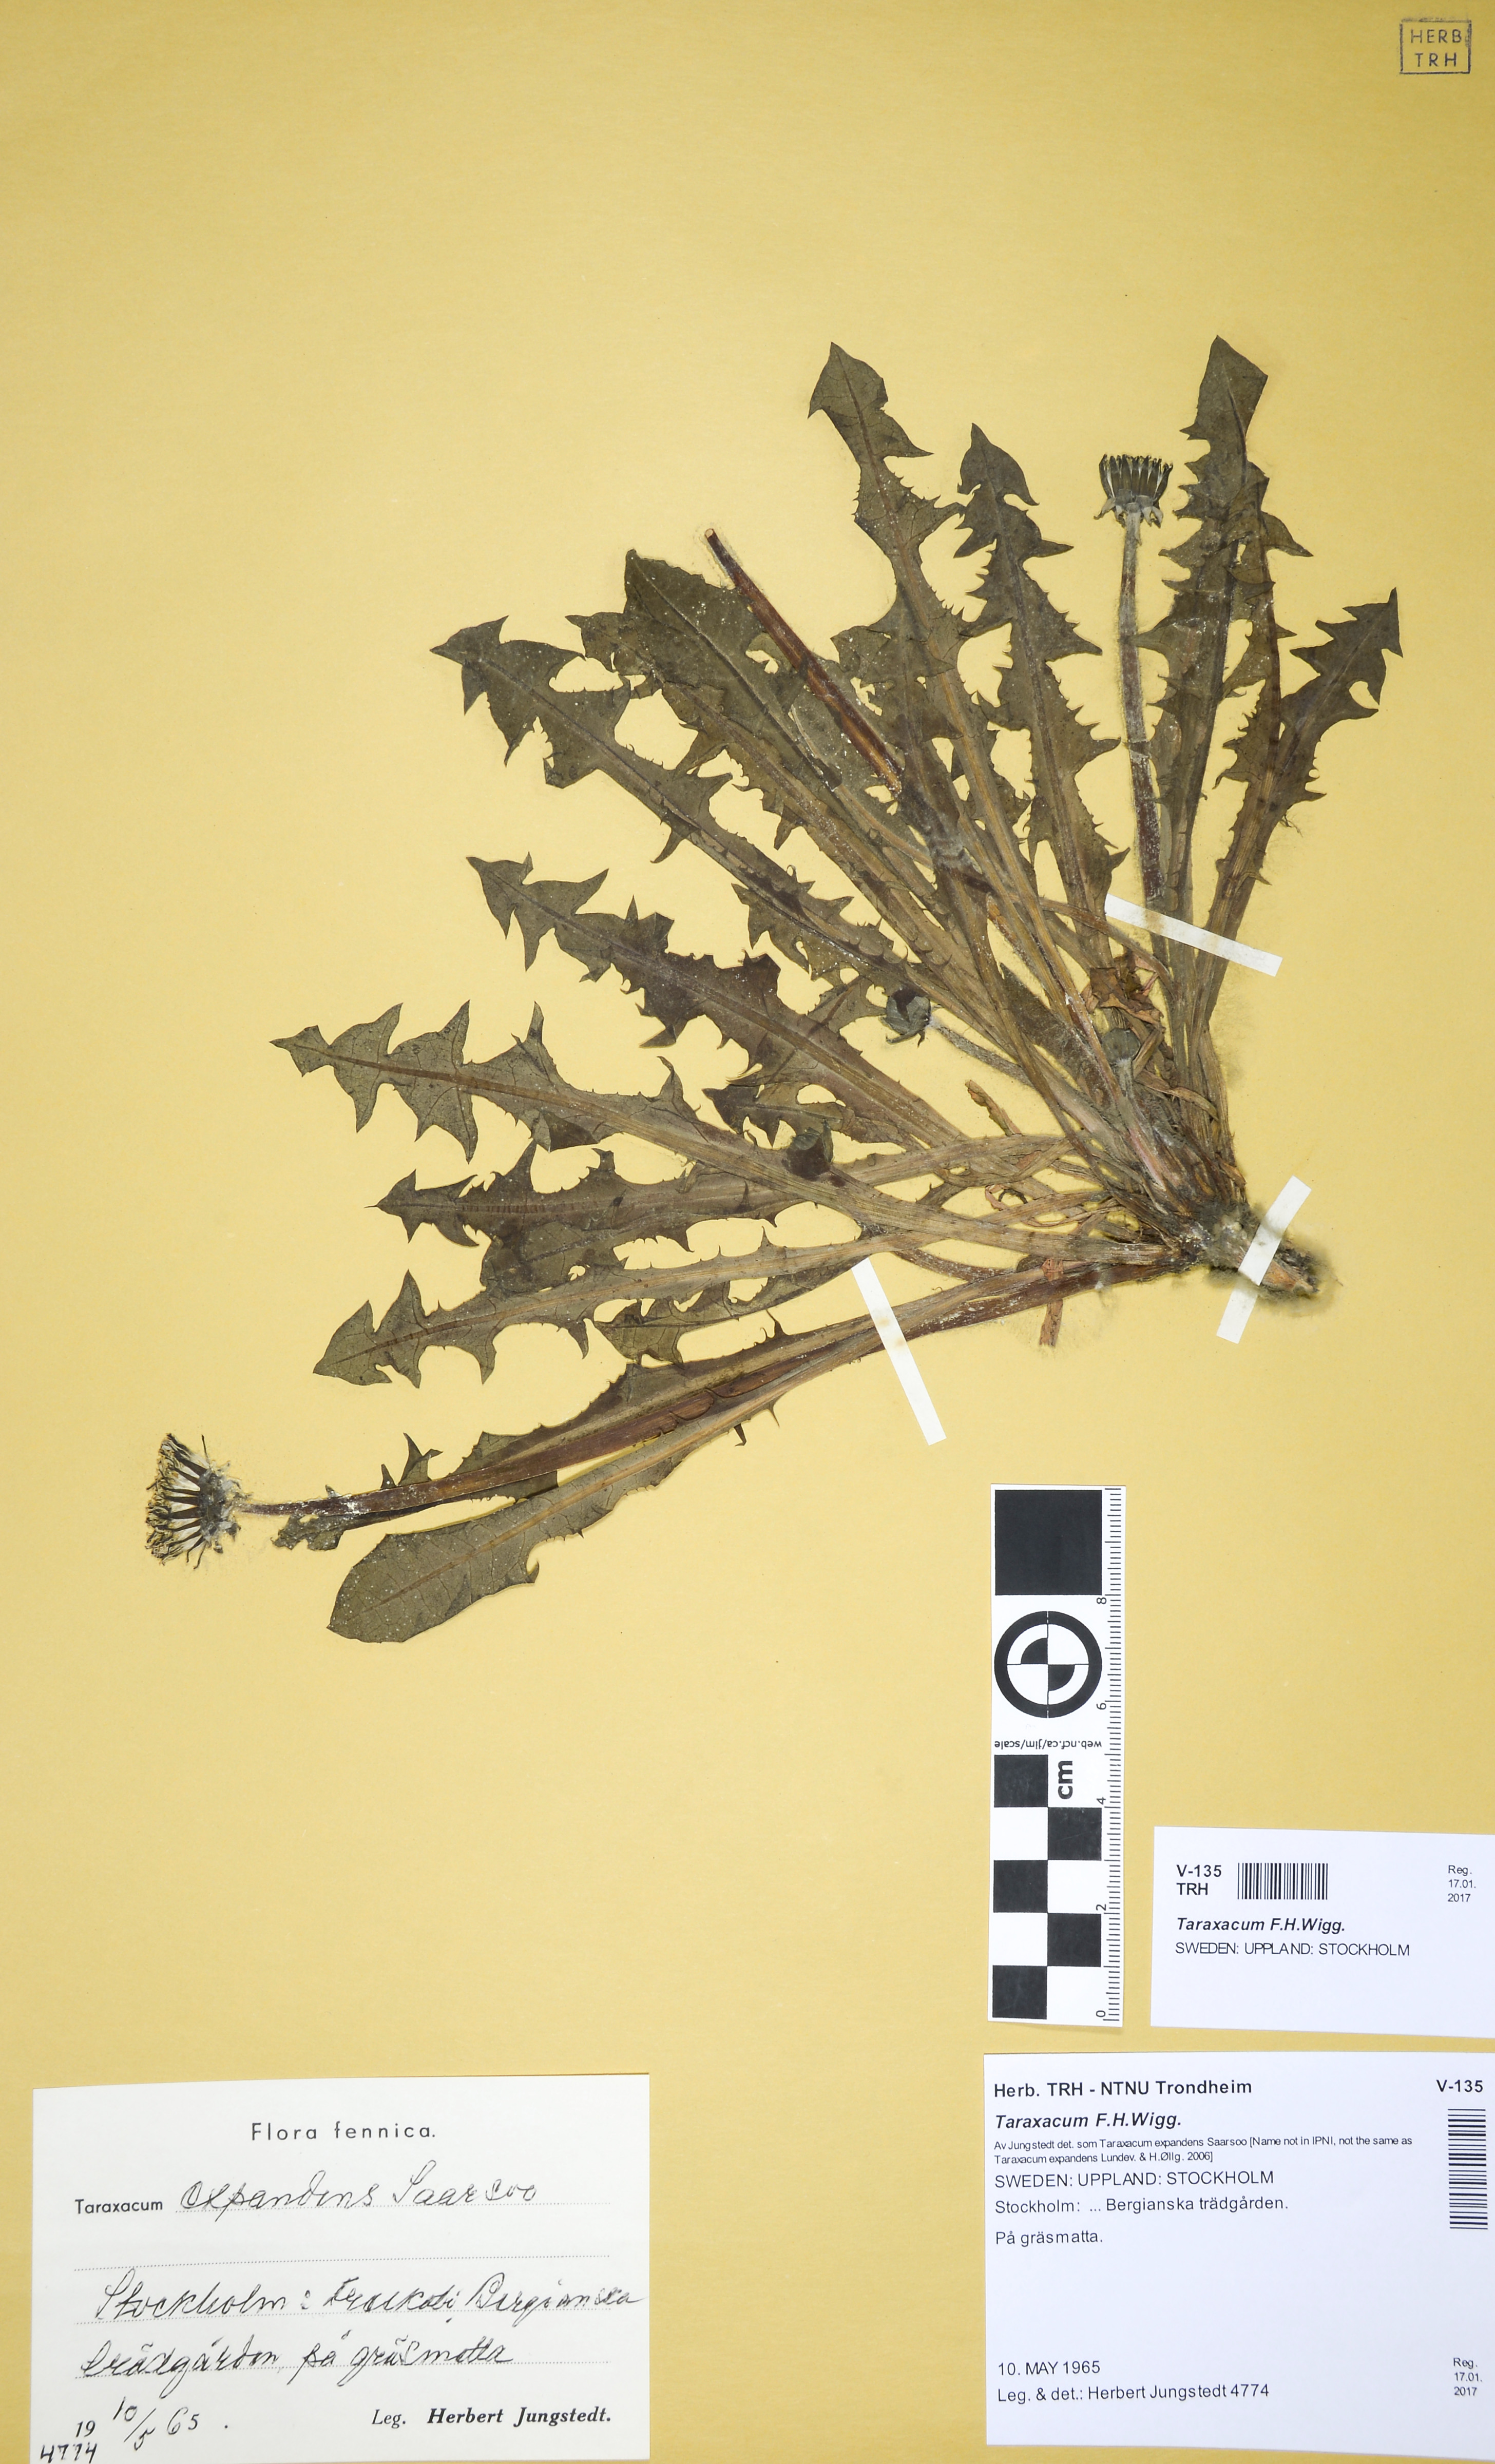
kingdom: Plantae
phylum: Tracheophyta
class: Magnoliopsida
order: Asterales
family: Asteraceae
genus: Taraxacum
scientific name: Taraxacum
